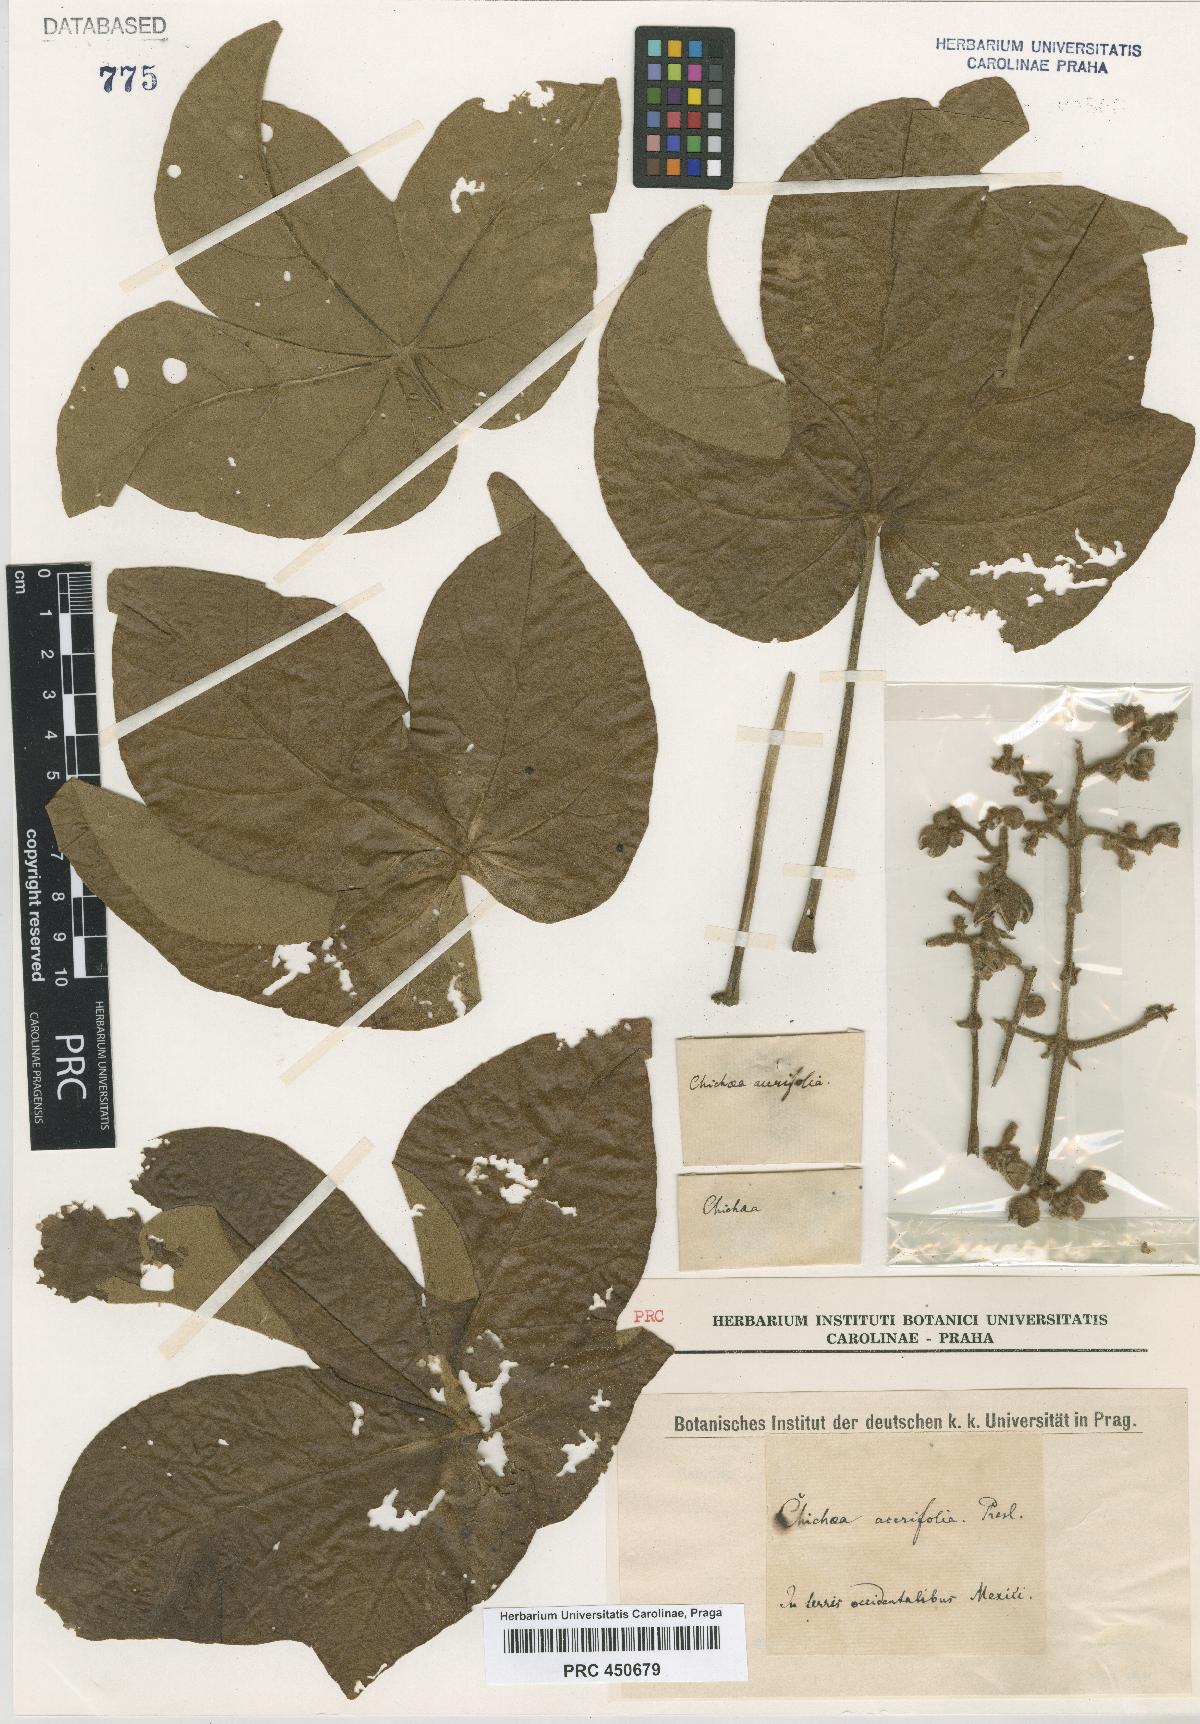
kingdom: Plantae
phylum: Tracheophyta
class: Magnoliopsida
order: Malvales
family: Malvaceae
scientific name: Malvaceae
